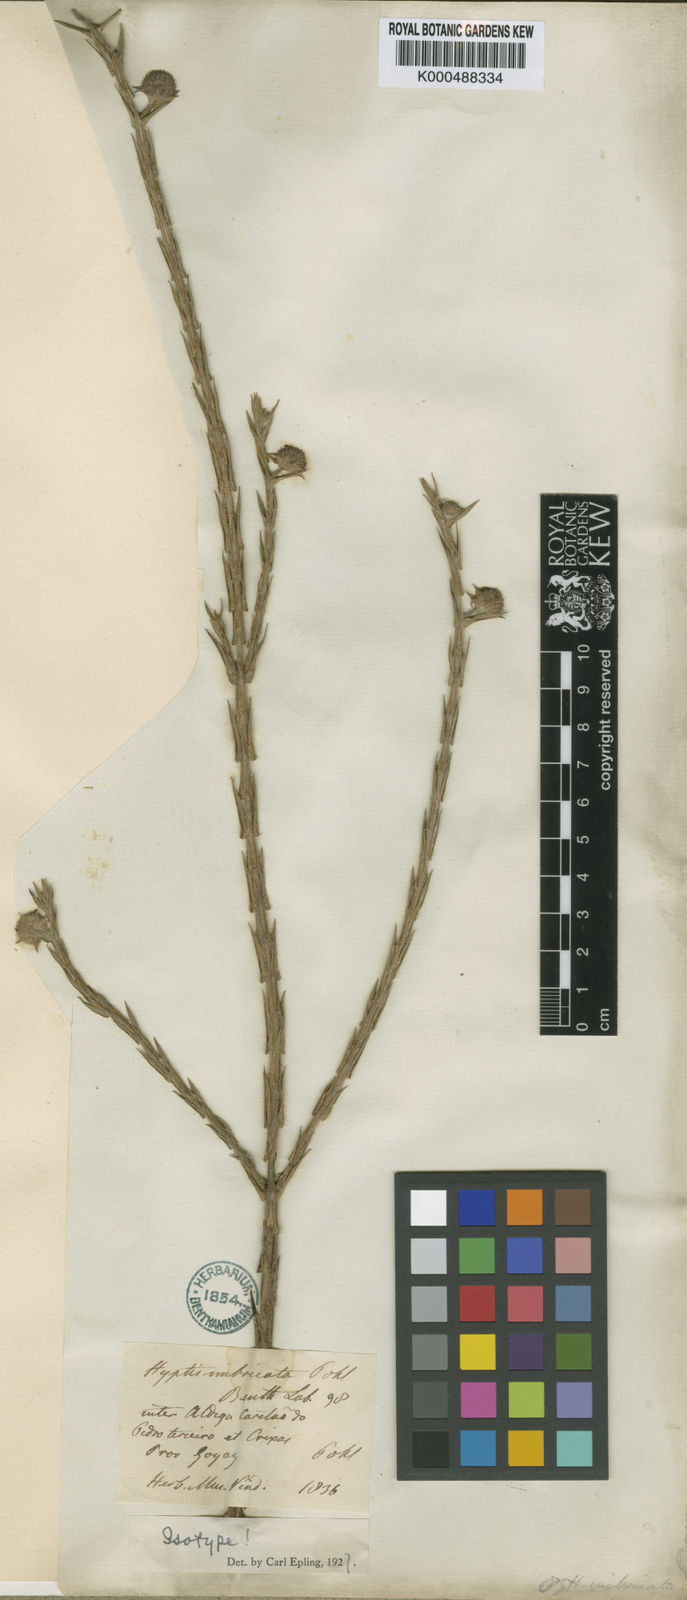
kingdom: Plantae
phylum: Tracheophyta
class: Magnoliopsida
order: Lamiales
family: Lamiaceae
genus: Hyptis
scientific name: Hyptis imbricata
